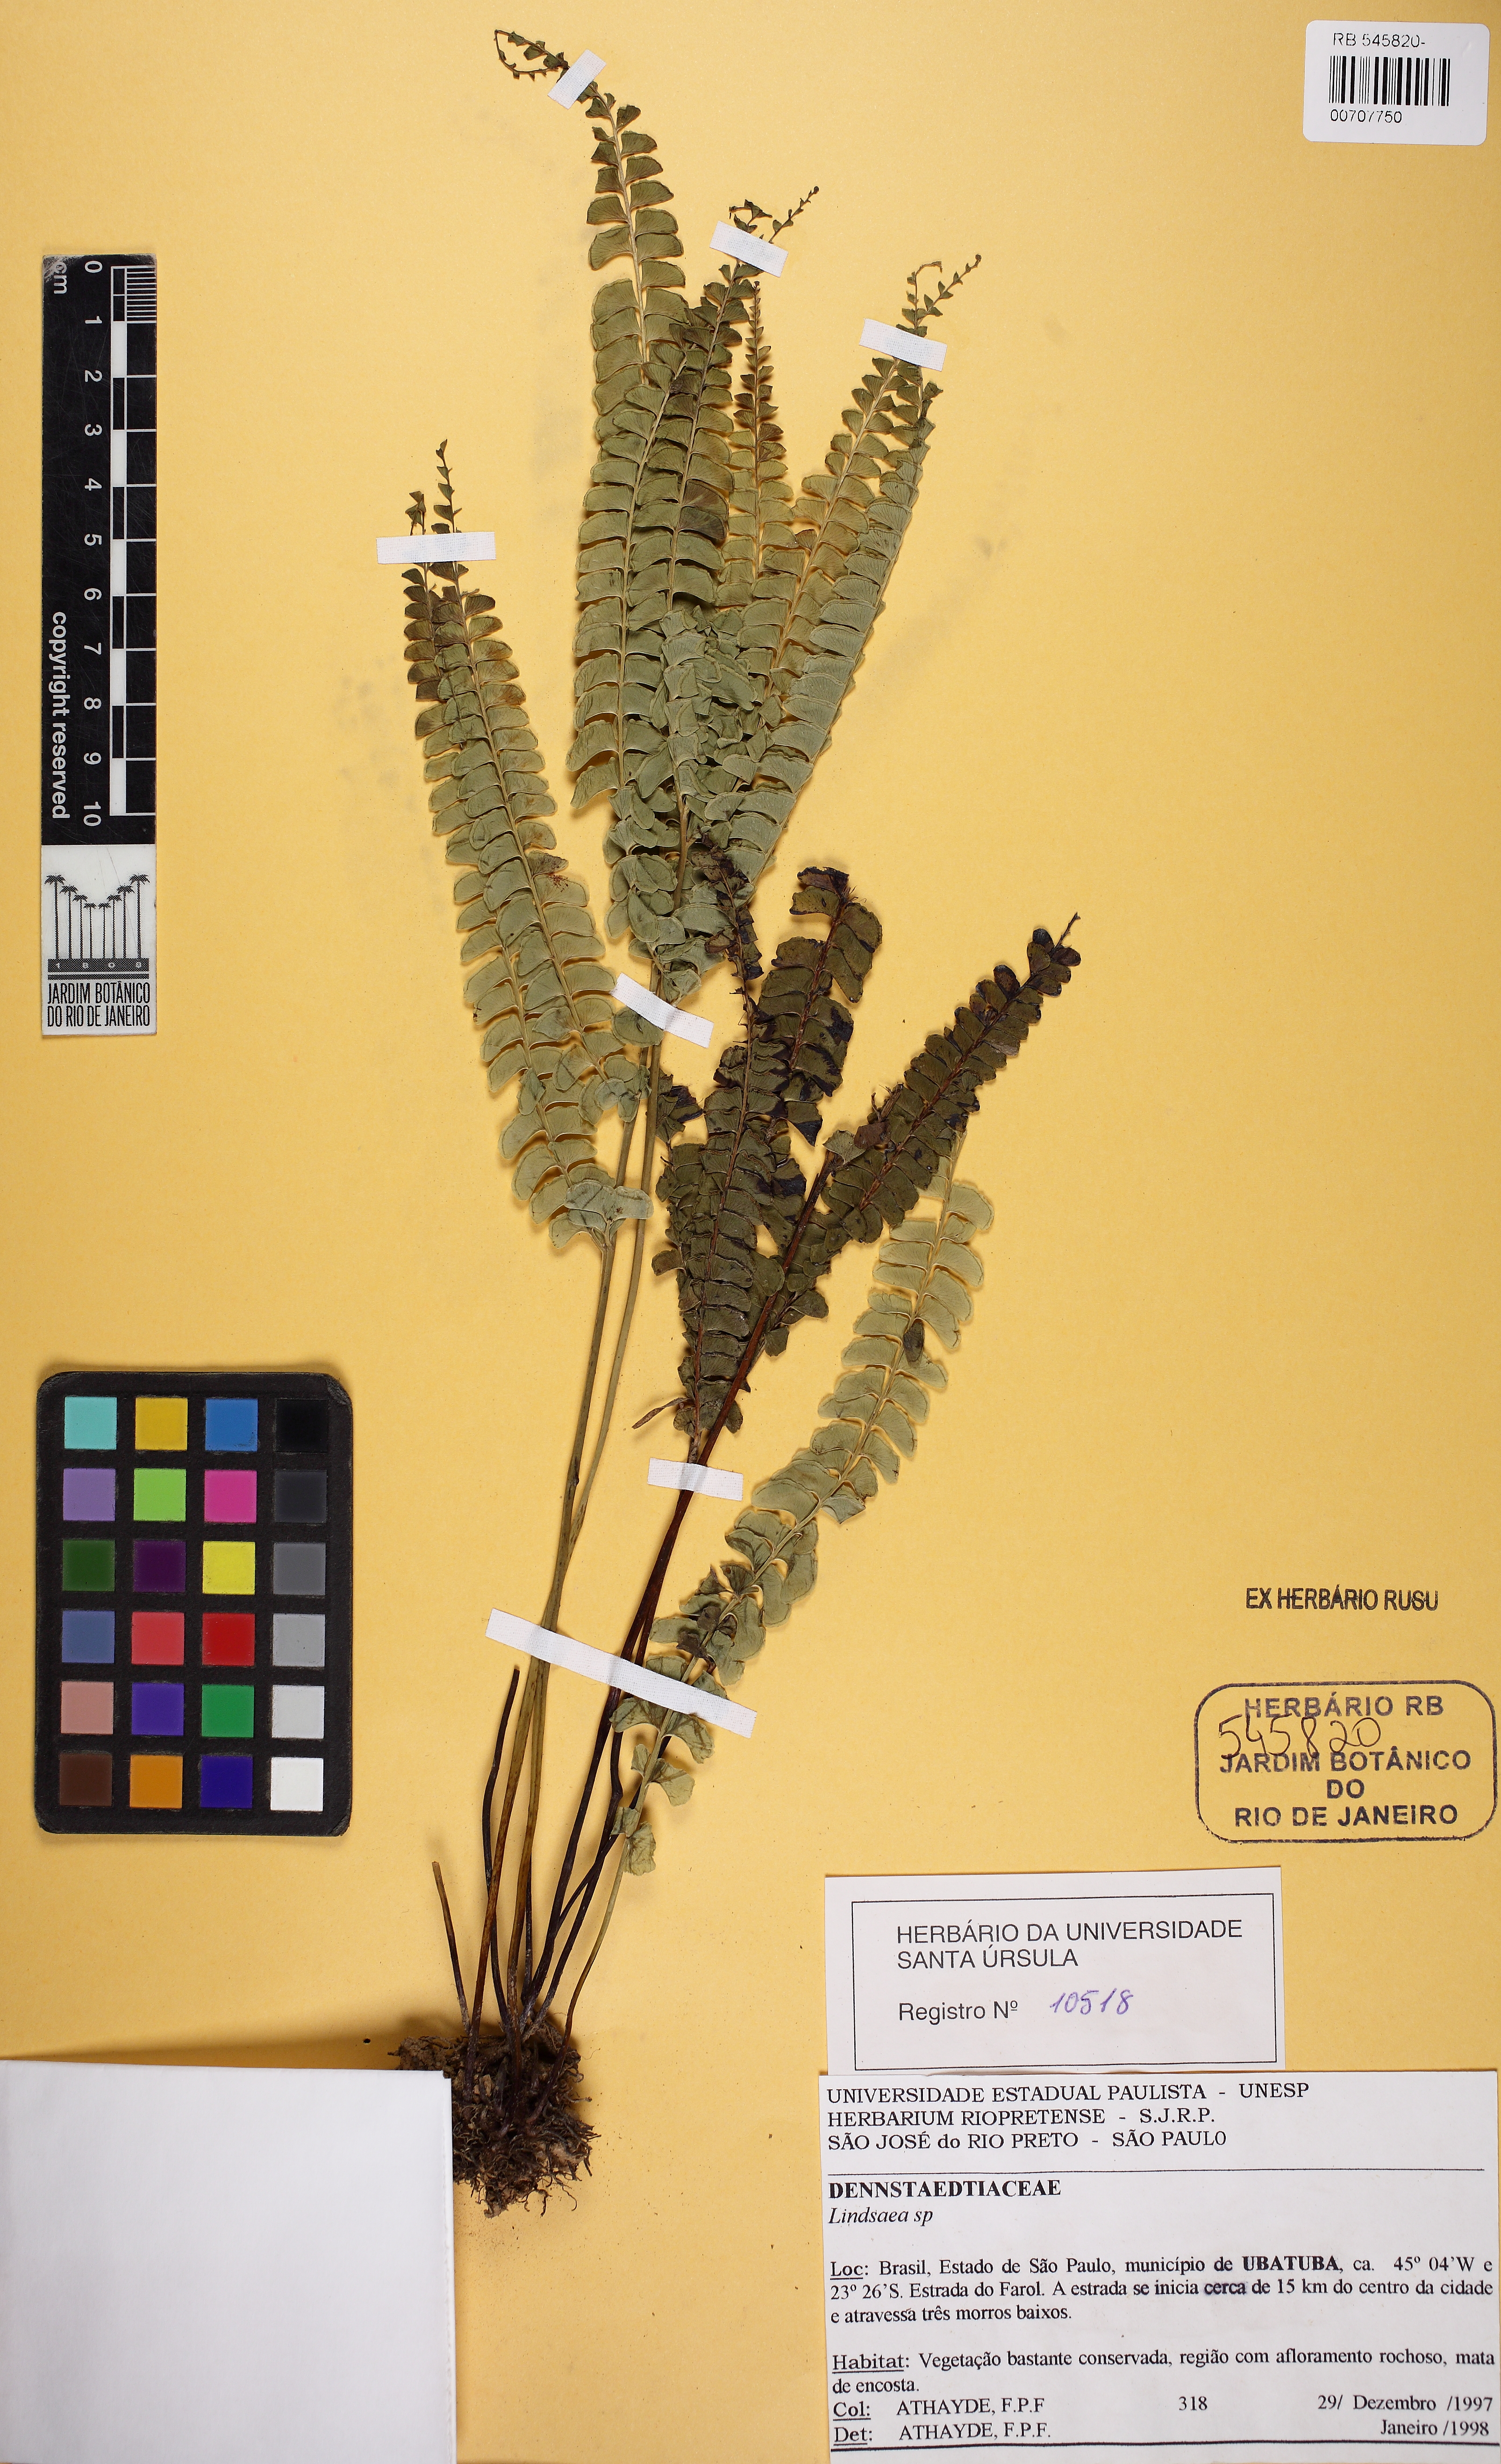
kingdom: Plantae
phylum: Tracheophyta
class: Polypodiopsida
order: Polypodiales
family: Dennstaedtiaceae
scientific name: Dennstaedtiaceae
